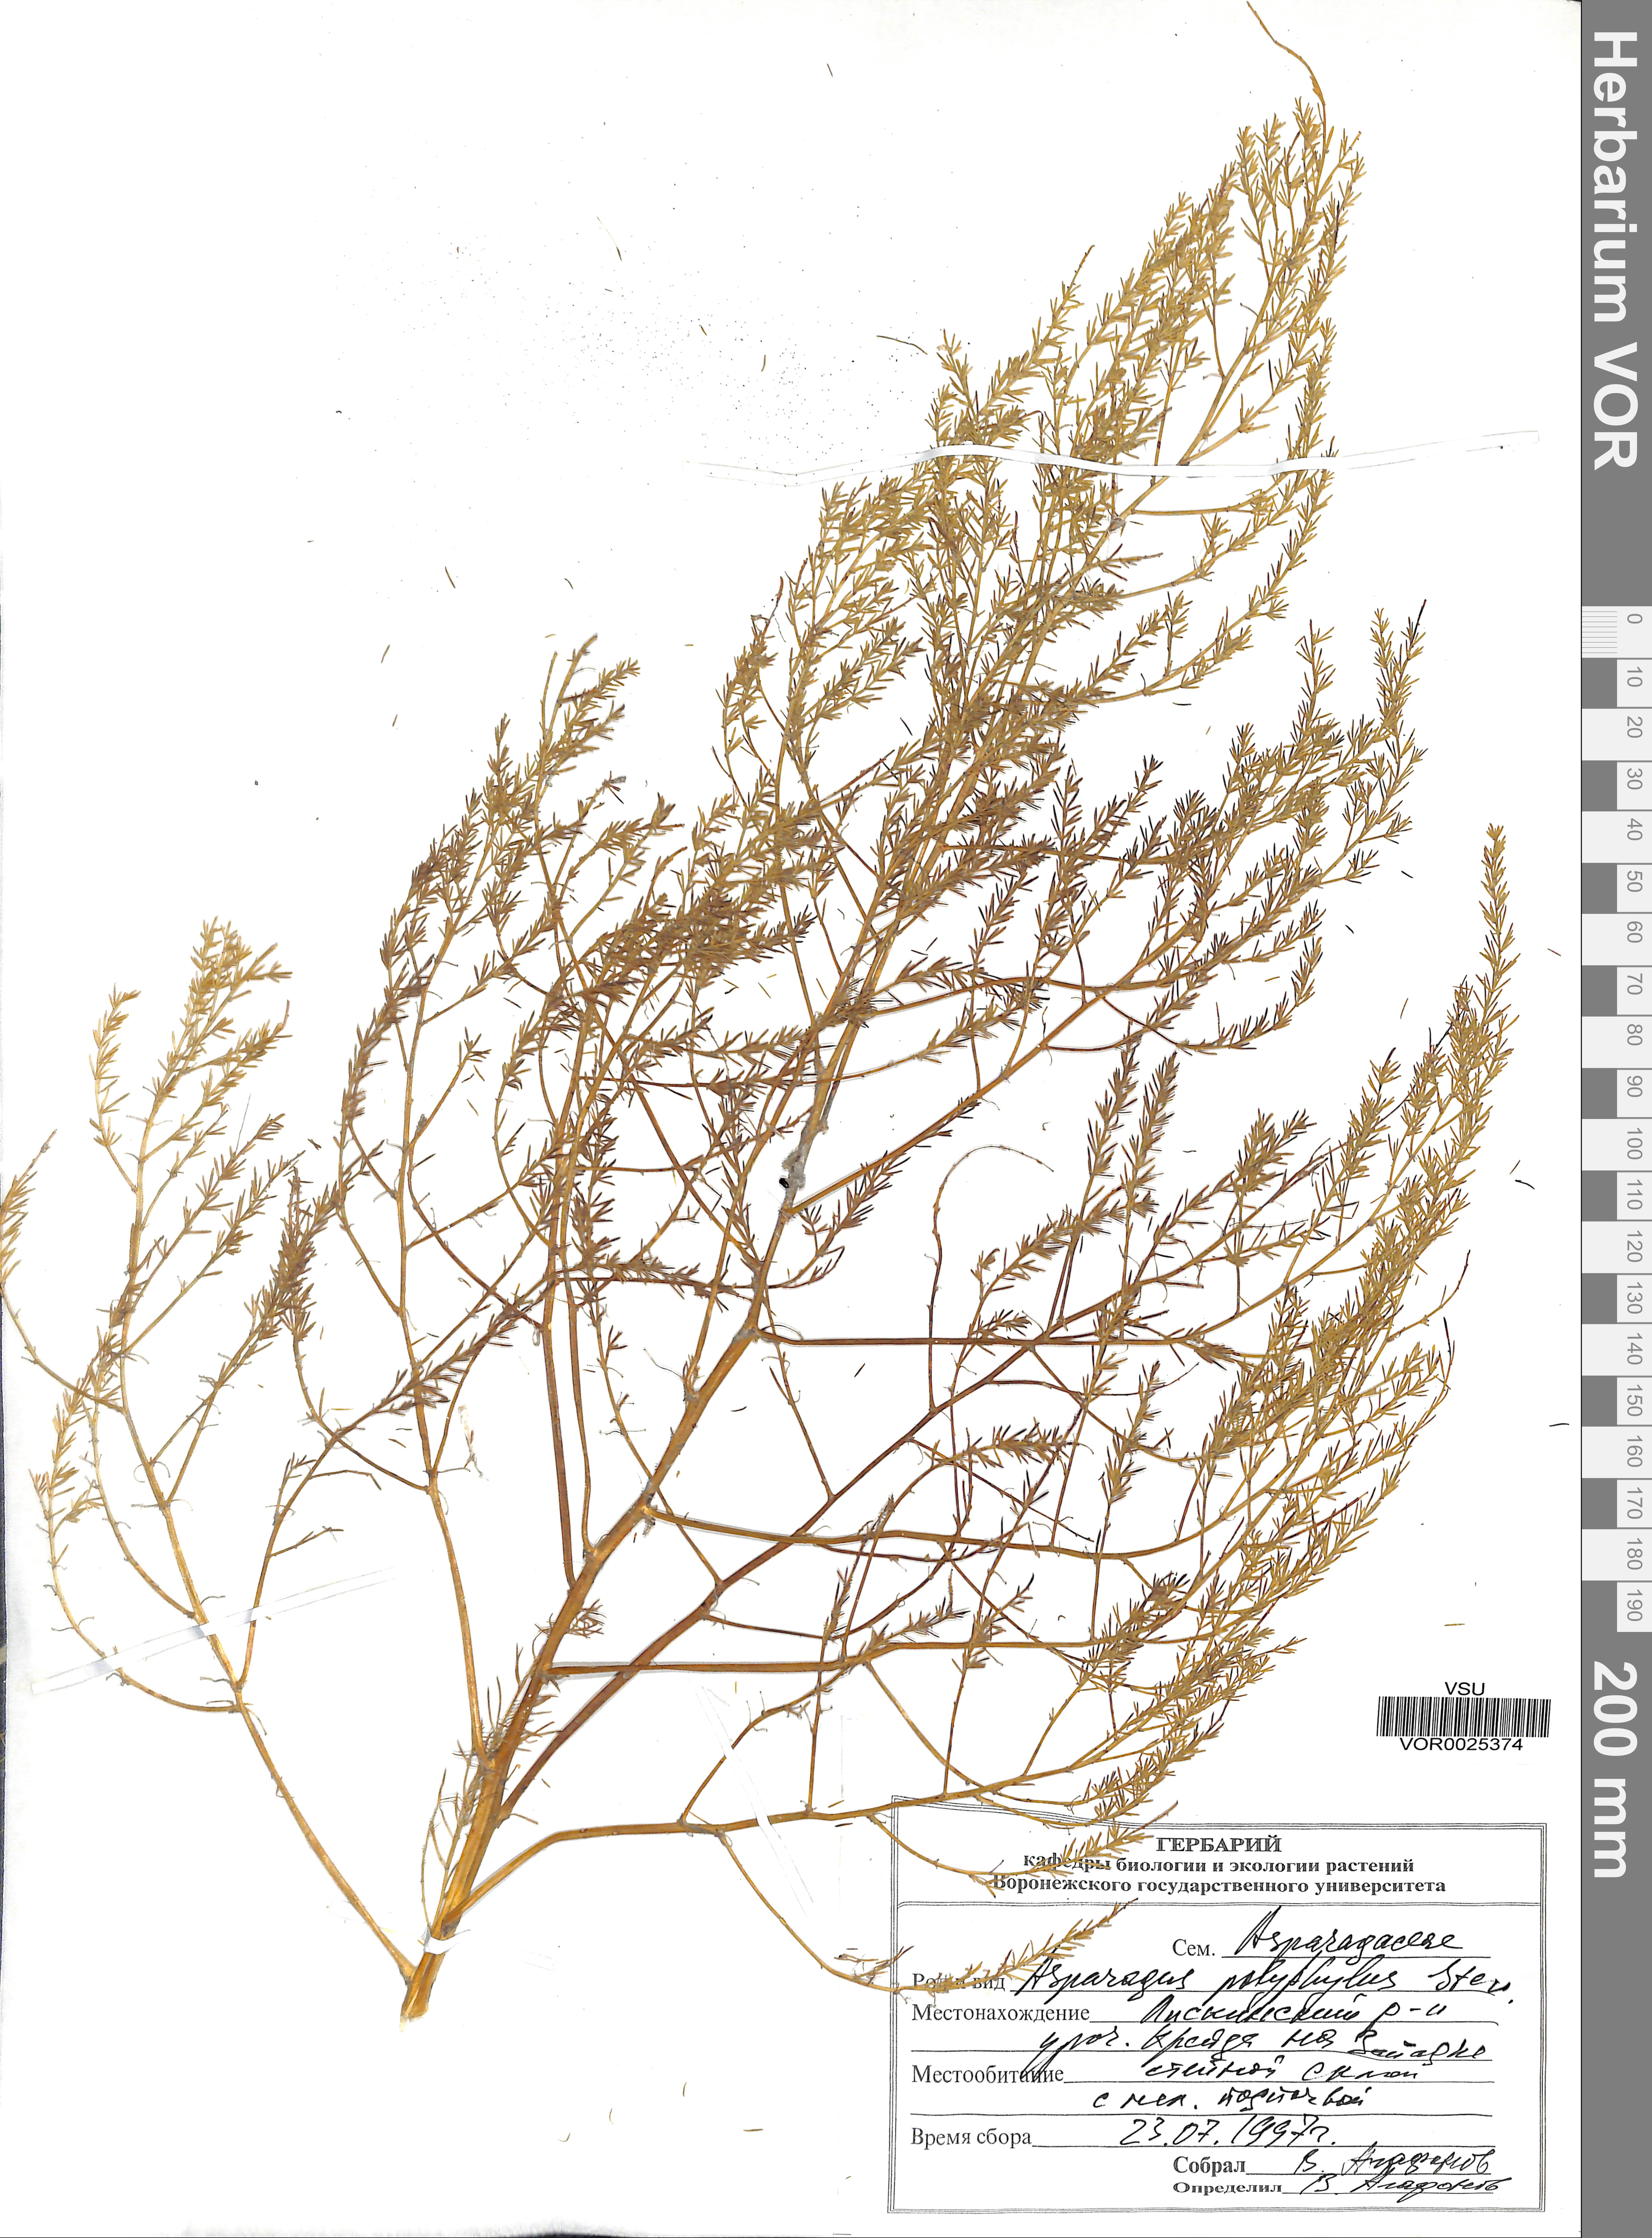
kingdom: Plantae
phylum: Tracheophyta
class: Liliopsida
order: Asparagales
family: Asparagaceae
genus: Asparagus
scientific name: Asparagus officinalis
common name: Garden asparagus
